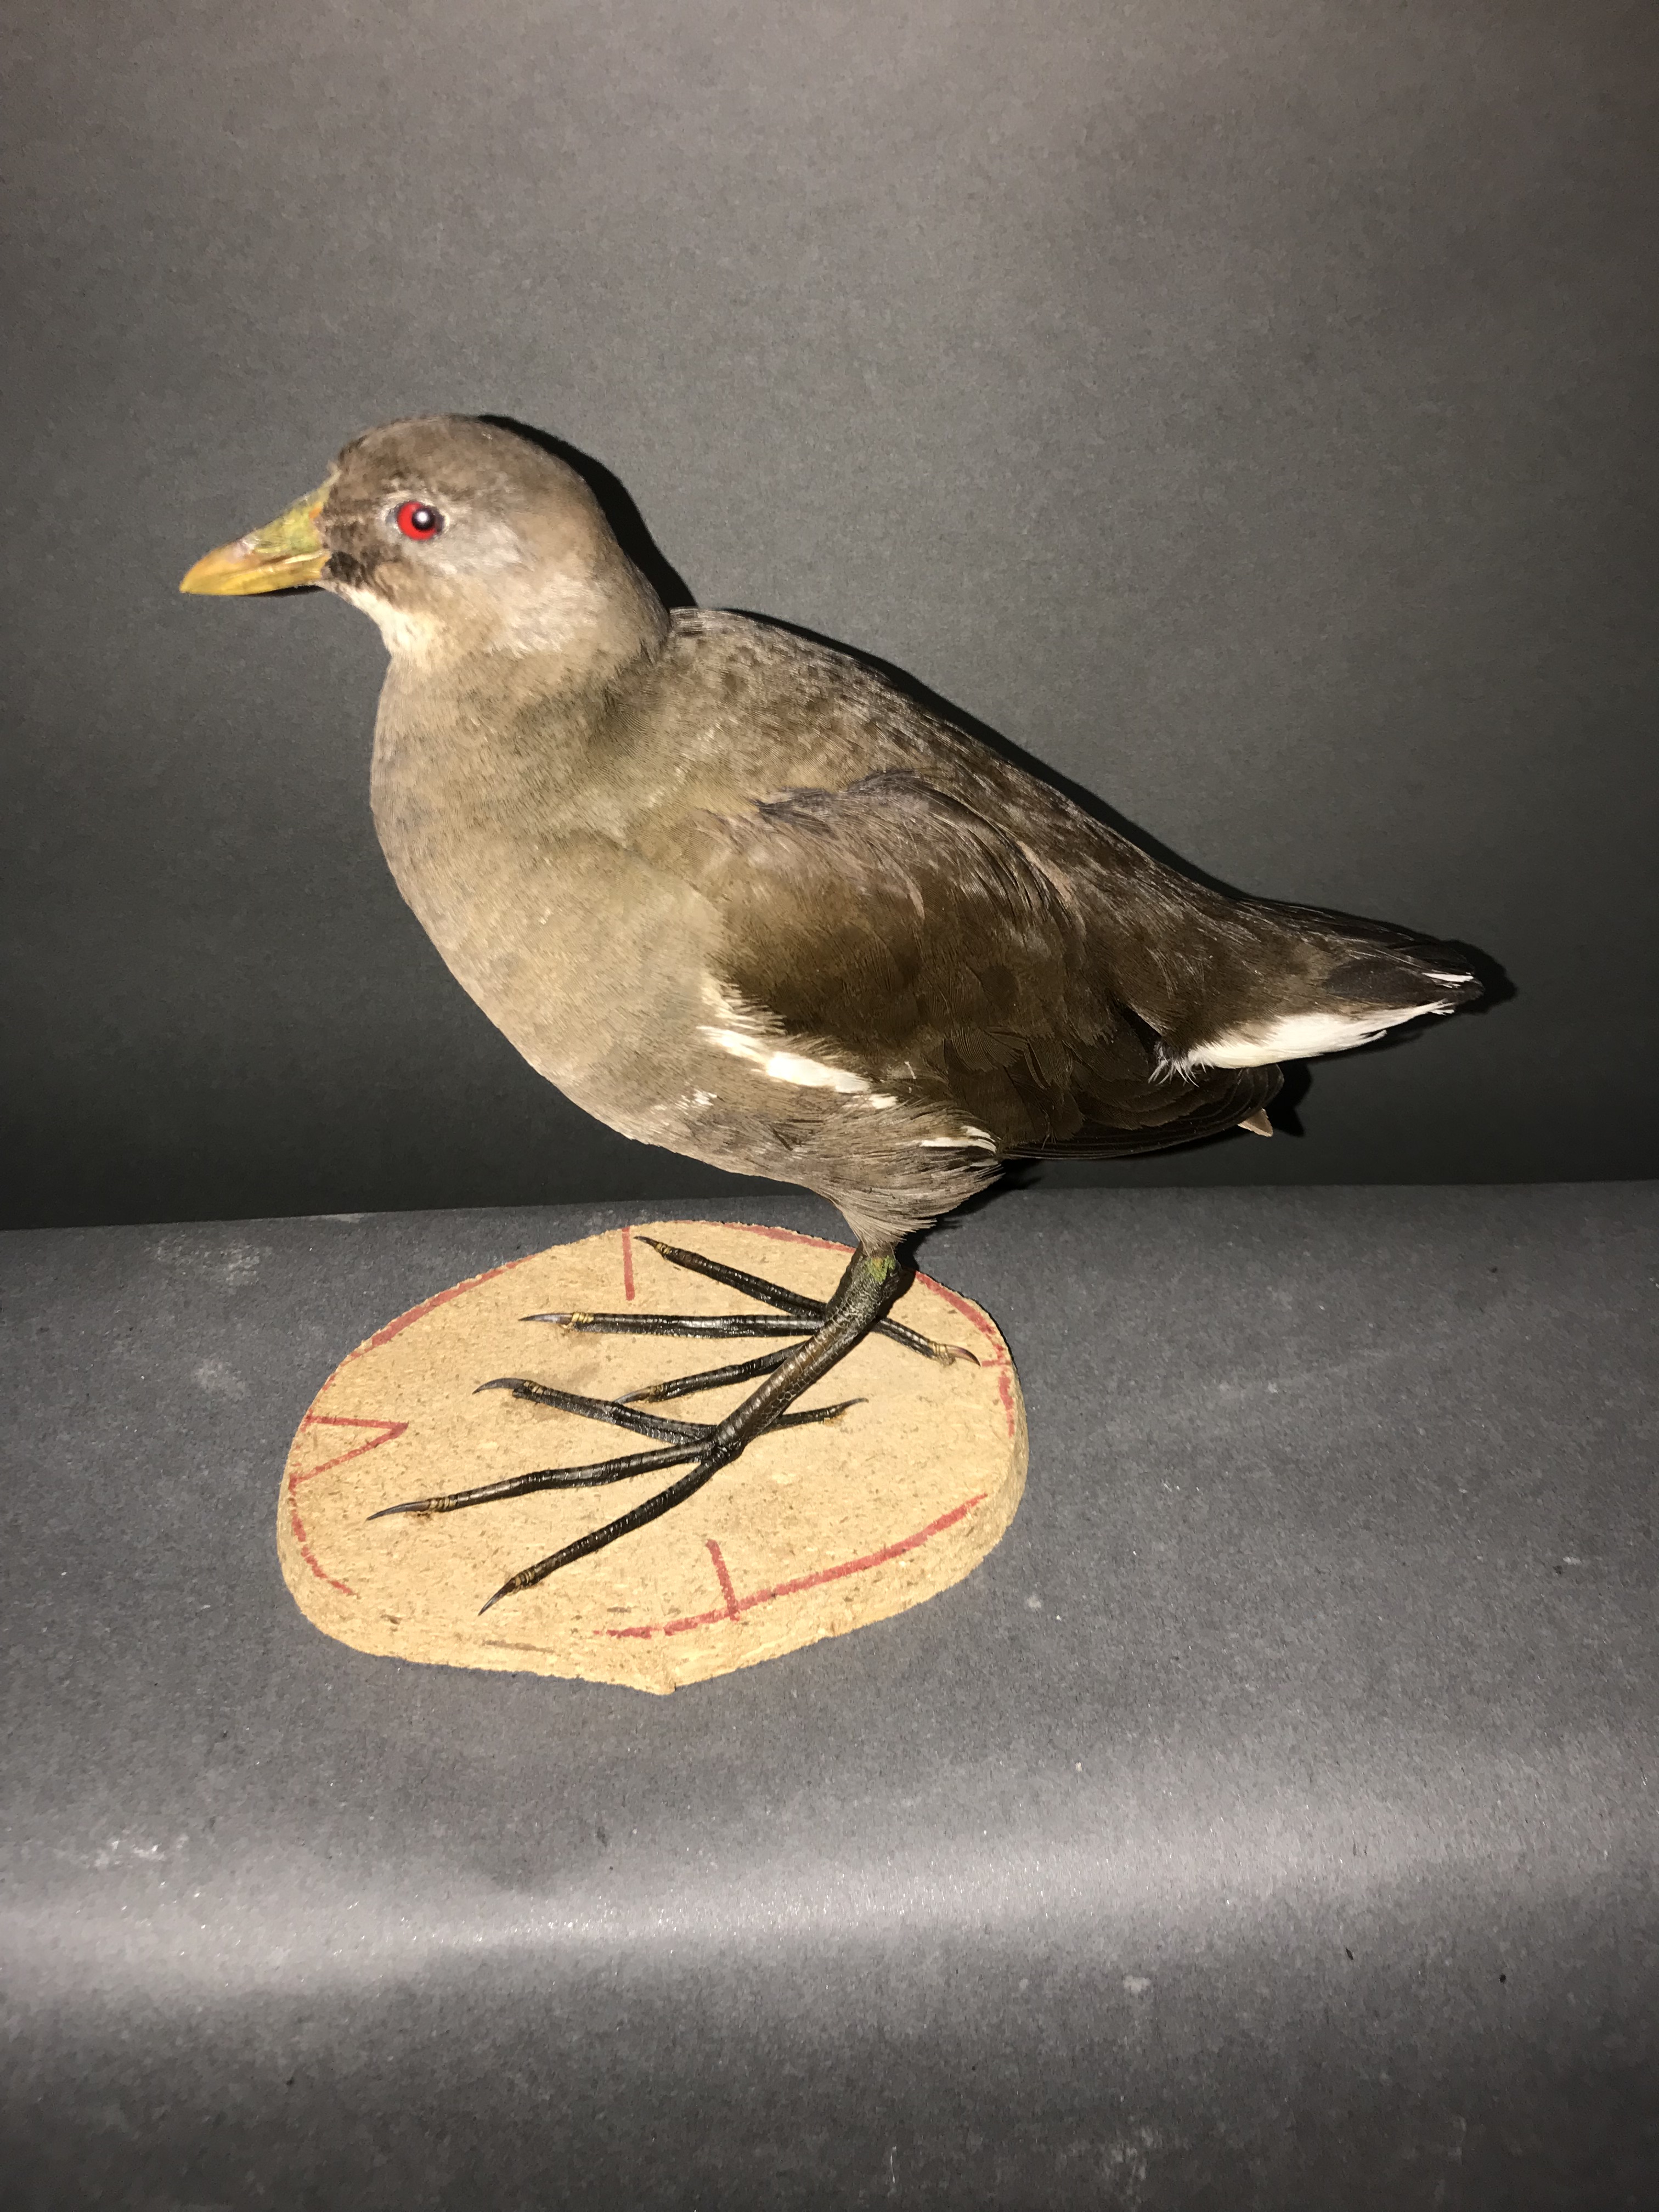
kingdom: Animalia
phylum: Chordata
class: Aves
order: Gruiformes
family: Rallidae
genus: Gallinula
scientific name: Gallinula chloropus
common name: Common moorhen
